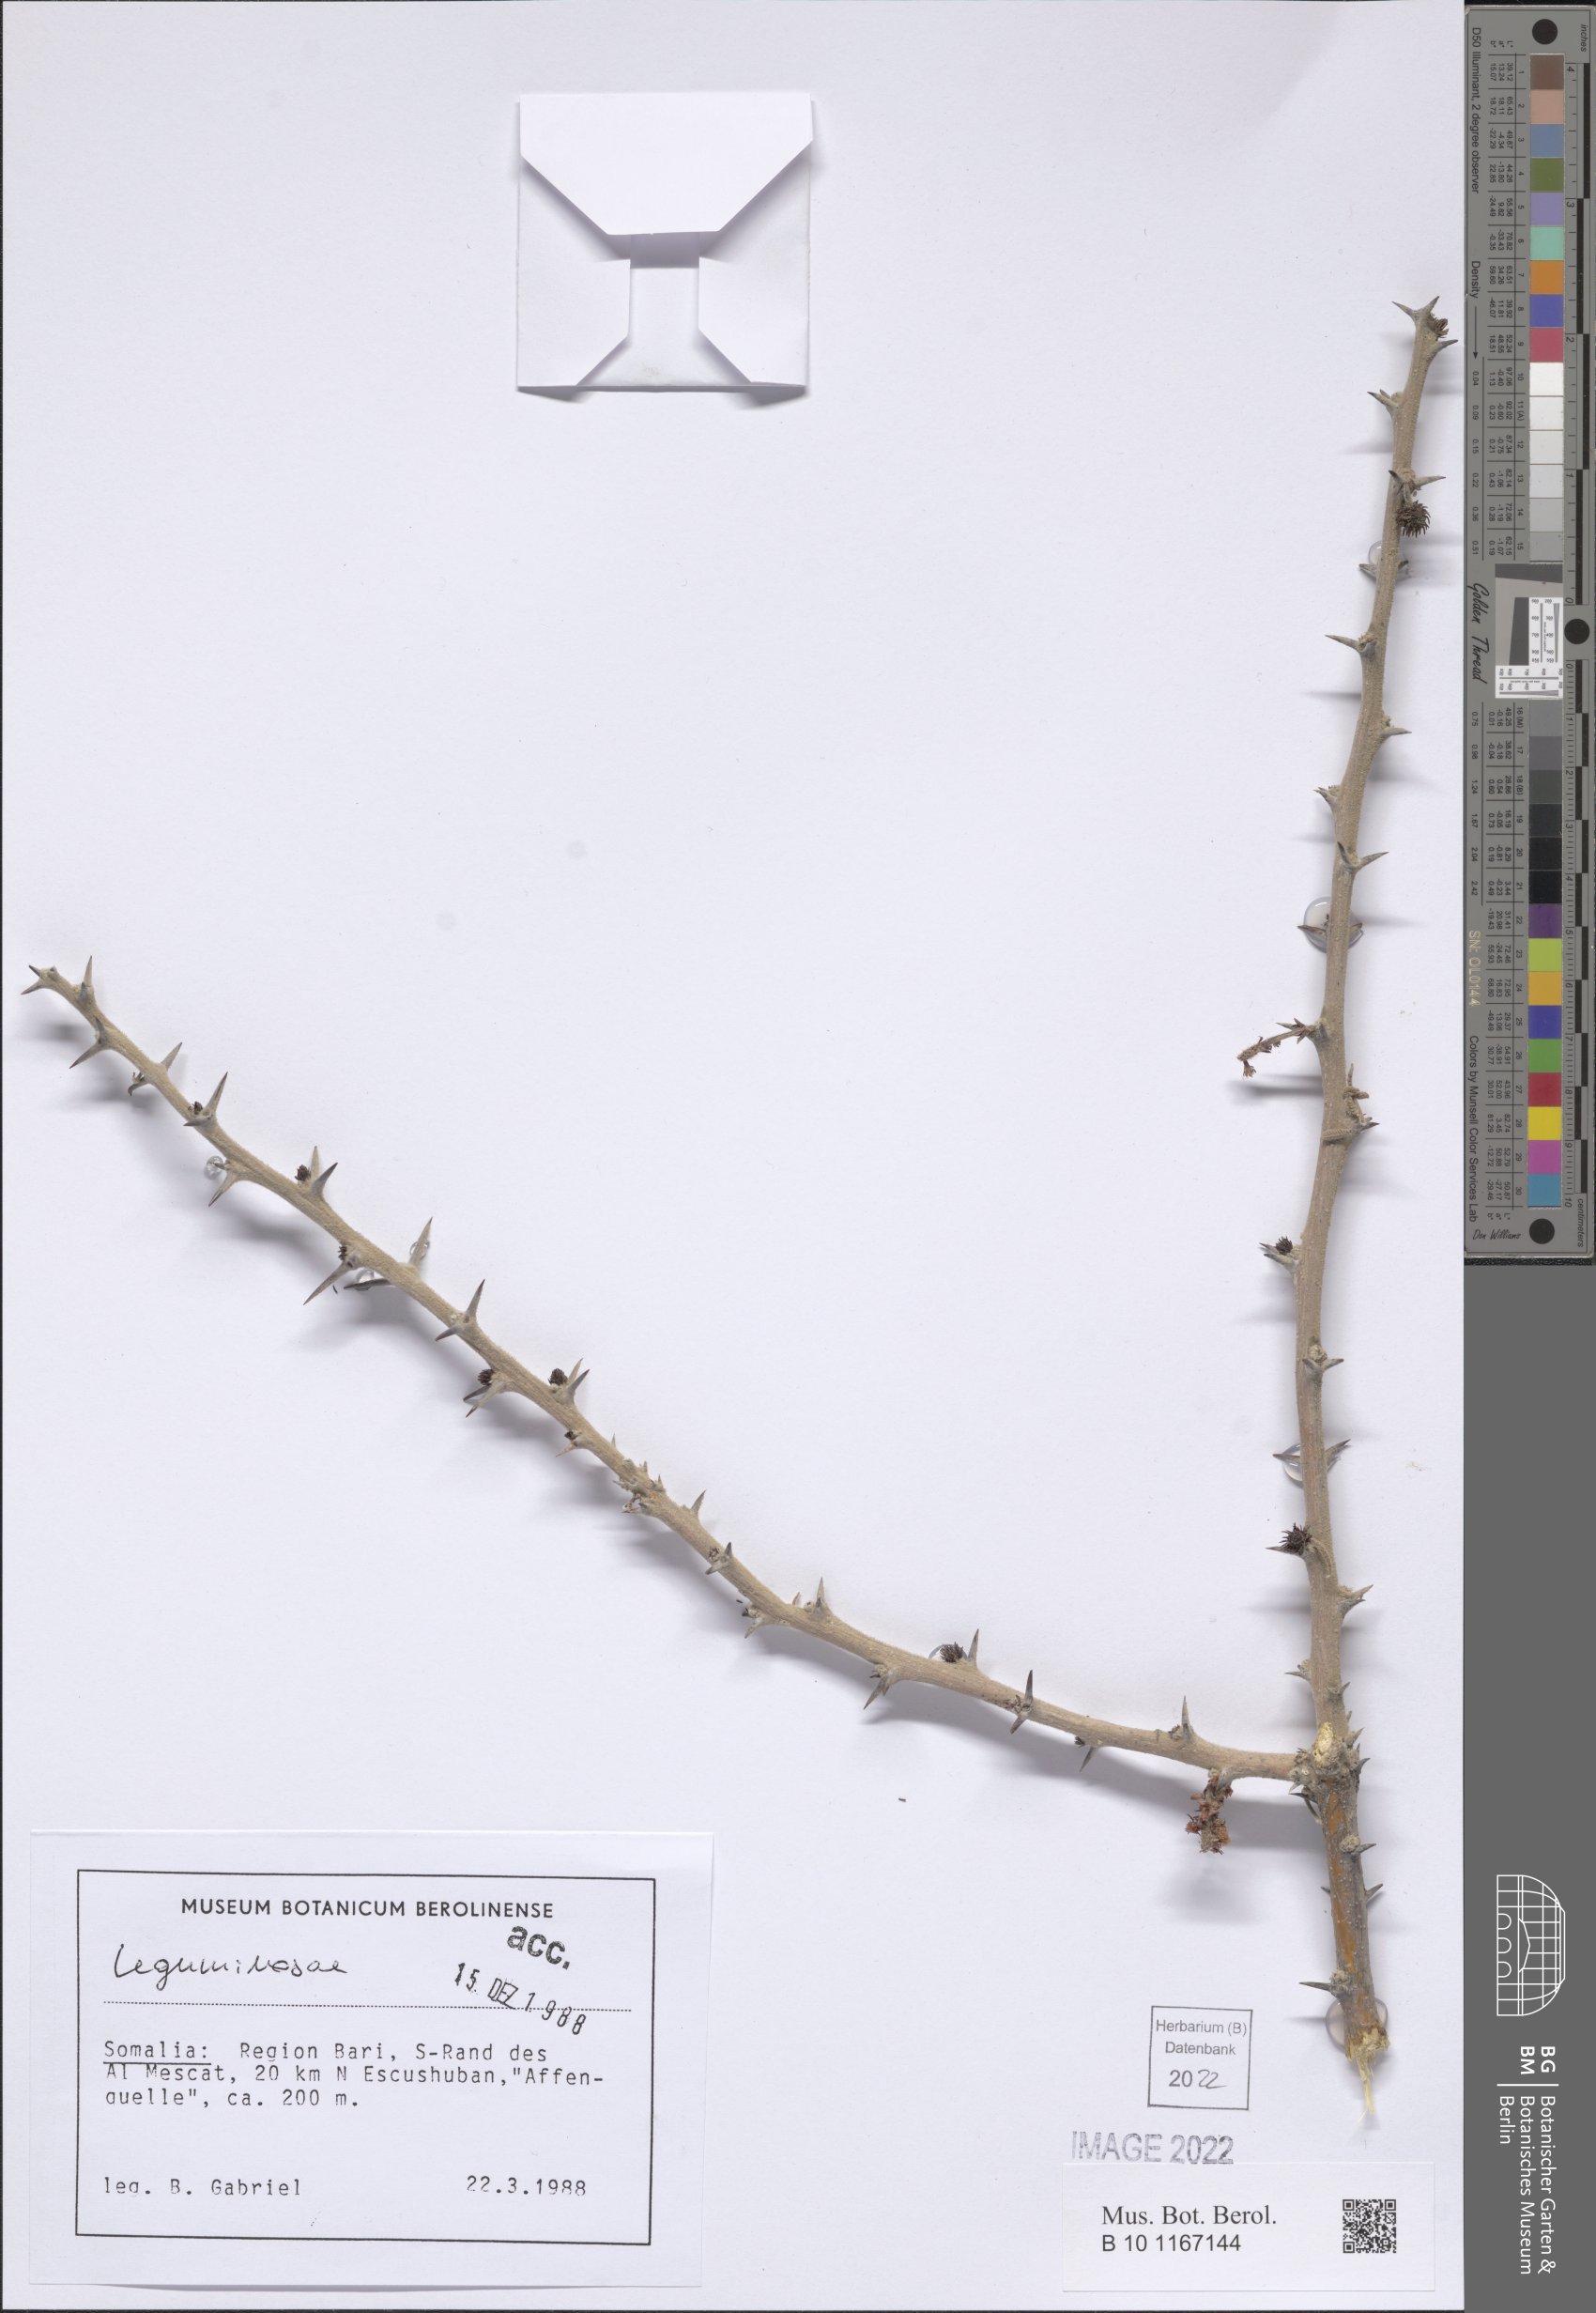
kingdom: Plantae
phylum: Tracheophyta
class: Magnoliopsida
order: Fabales
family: Fabaceae
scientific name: Fabaceae
